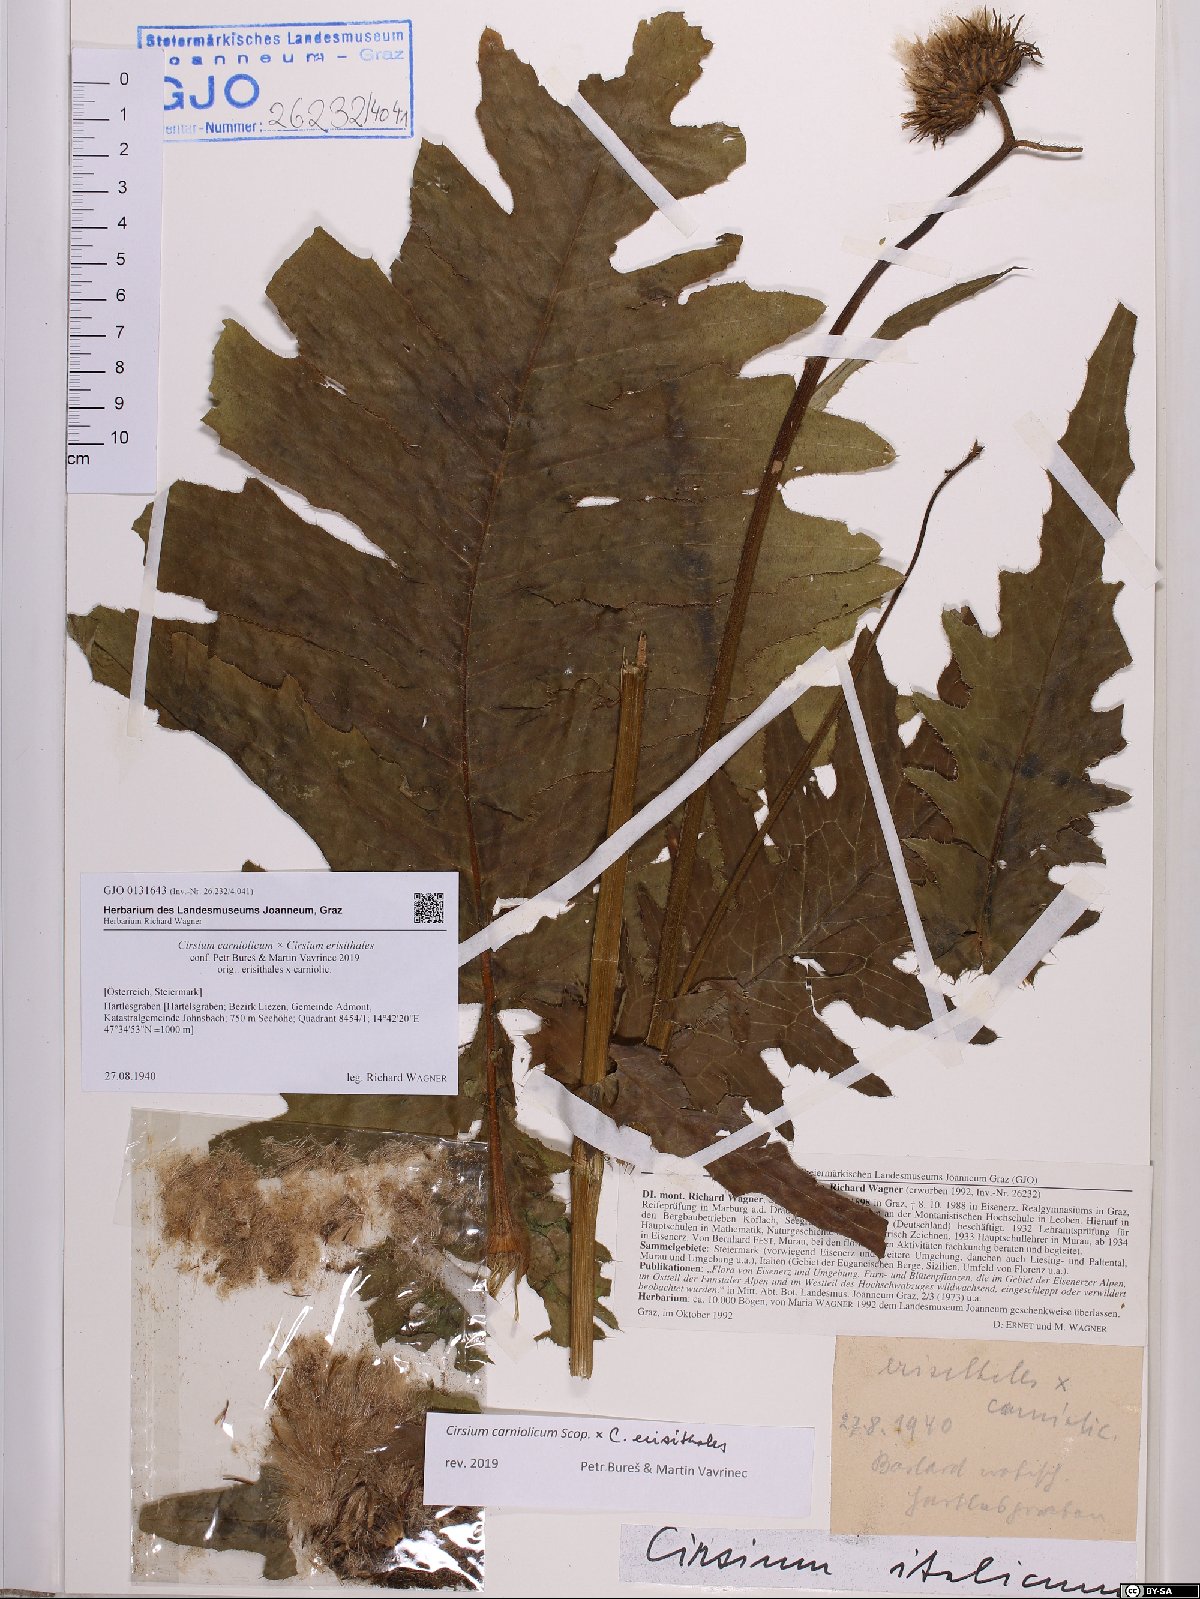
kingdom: Plantae
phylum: Tracheophyta
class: Magnoliopsida
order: Asterales
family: Asteraceae
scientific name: Asteraceae
